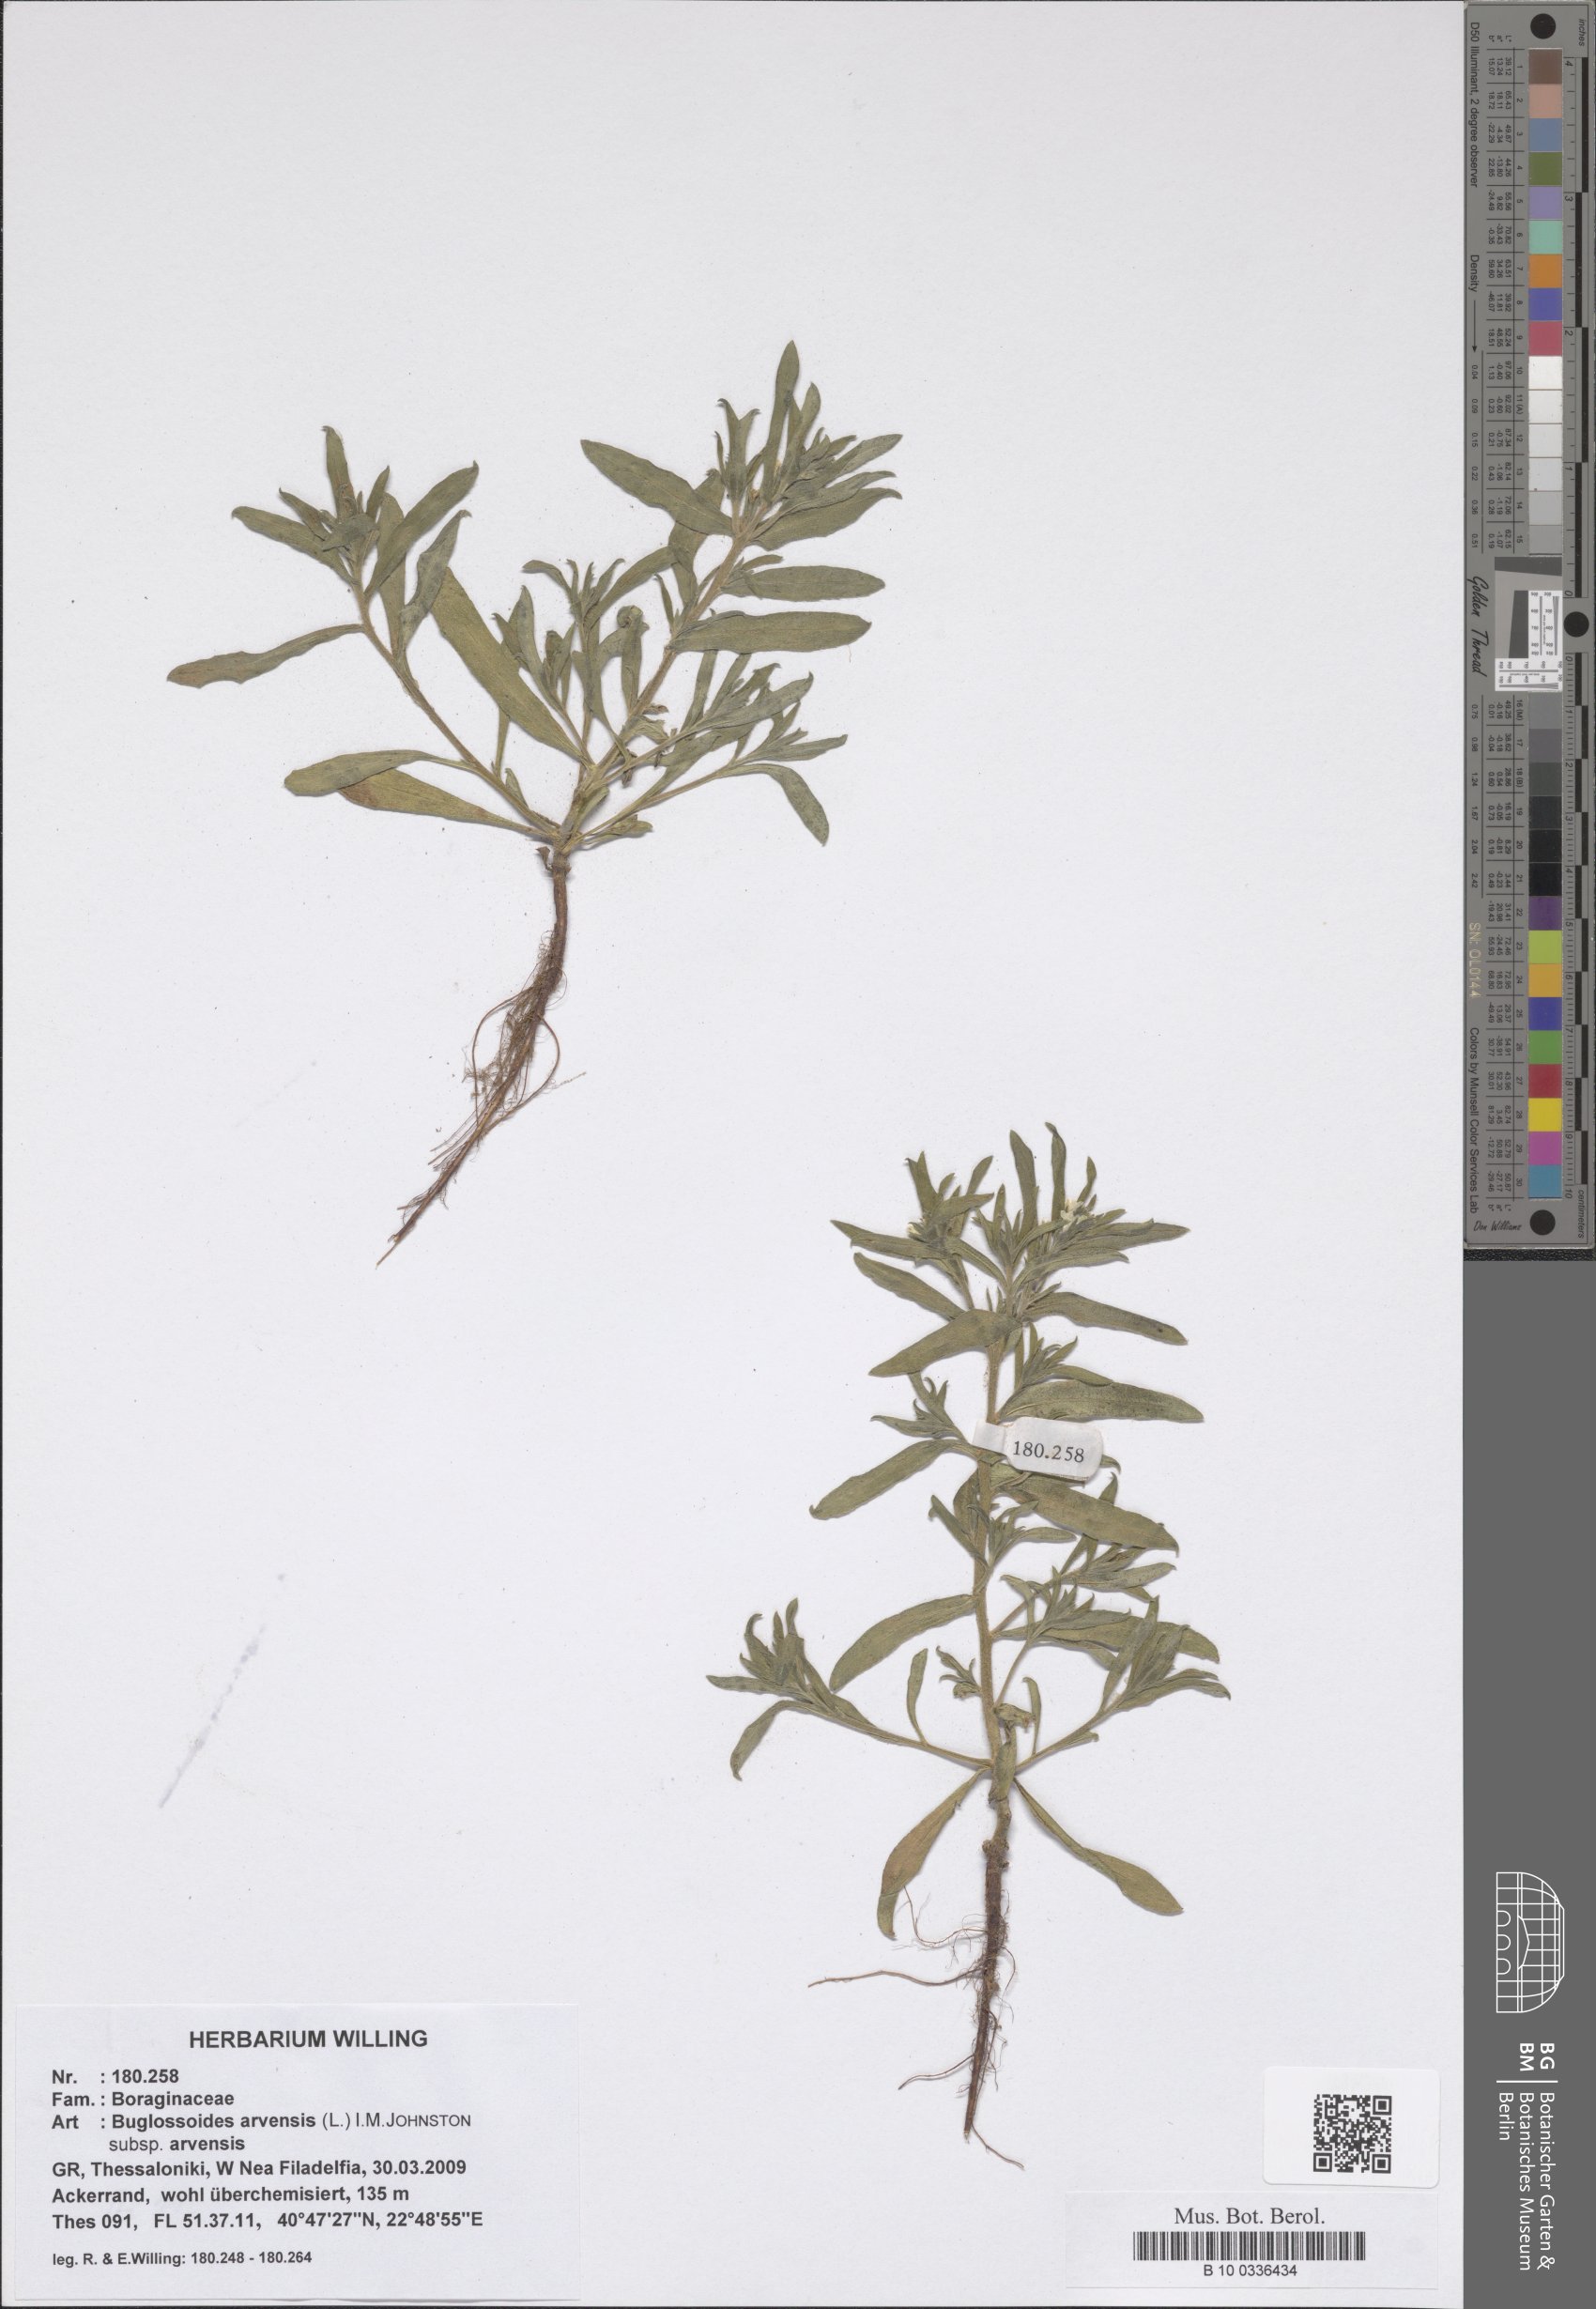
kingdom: Plantae
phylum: Tracheophyta
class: Magnoliopsida
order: Boraginales
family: Boraginaceae
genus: Buglossoides
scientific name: Buglossoides arvensis
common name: Corn gromwell
